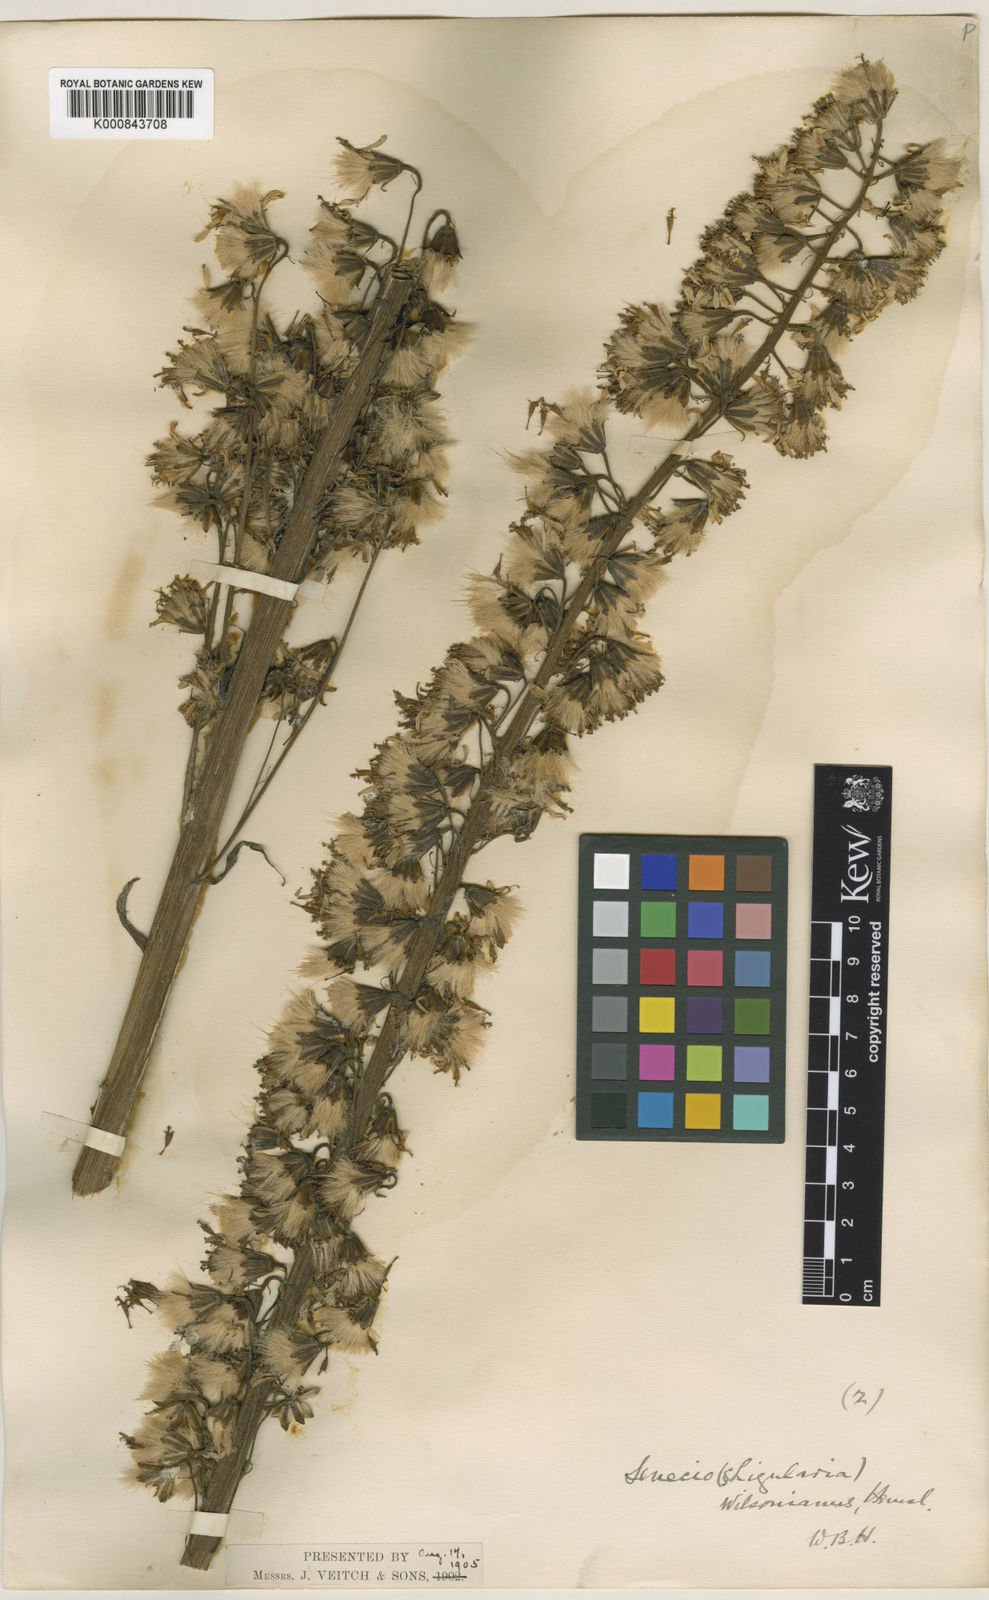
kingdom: Plantae
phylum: Tracheophyta
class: Magnoliopsida
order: Asterales
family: Asteraceae
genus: Ligularia
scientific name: Ligularia wilsoniana
